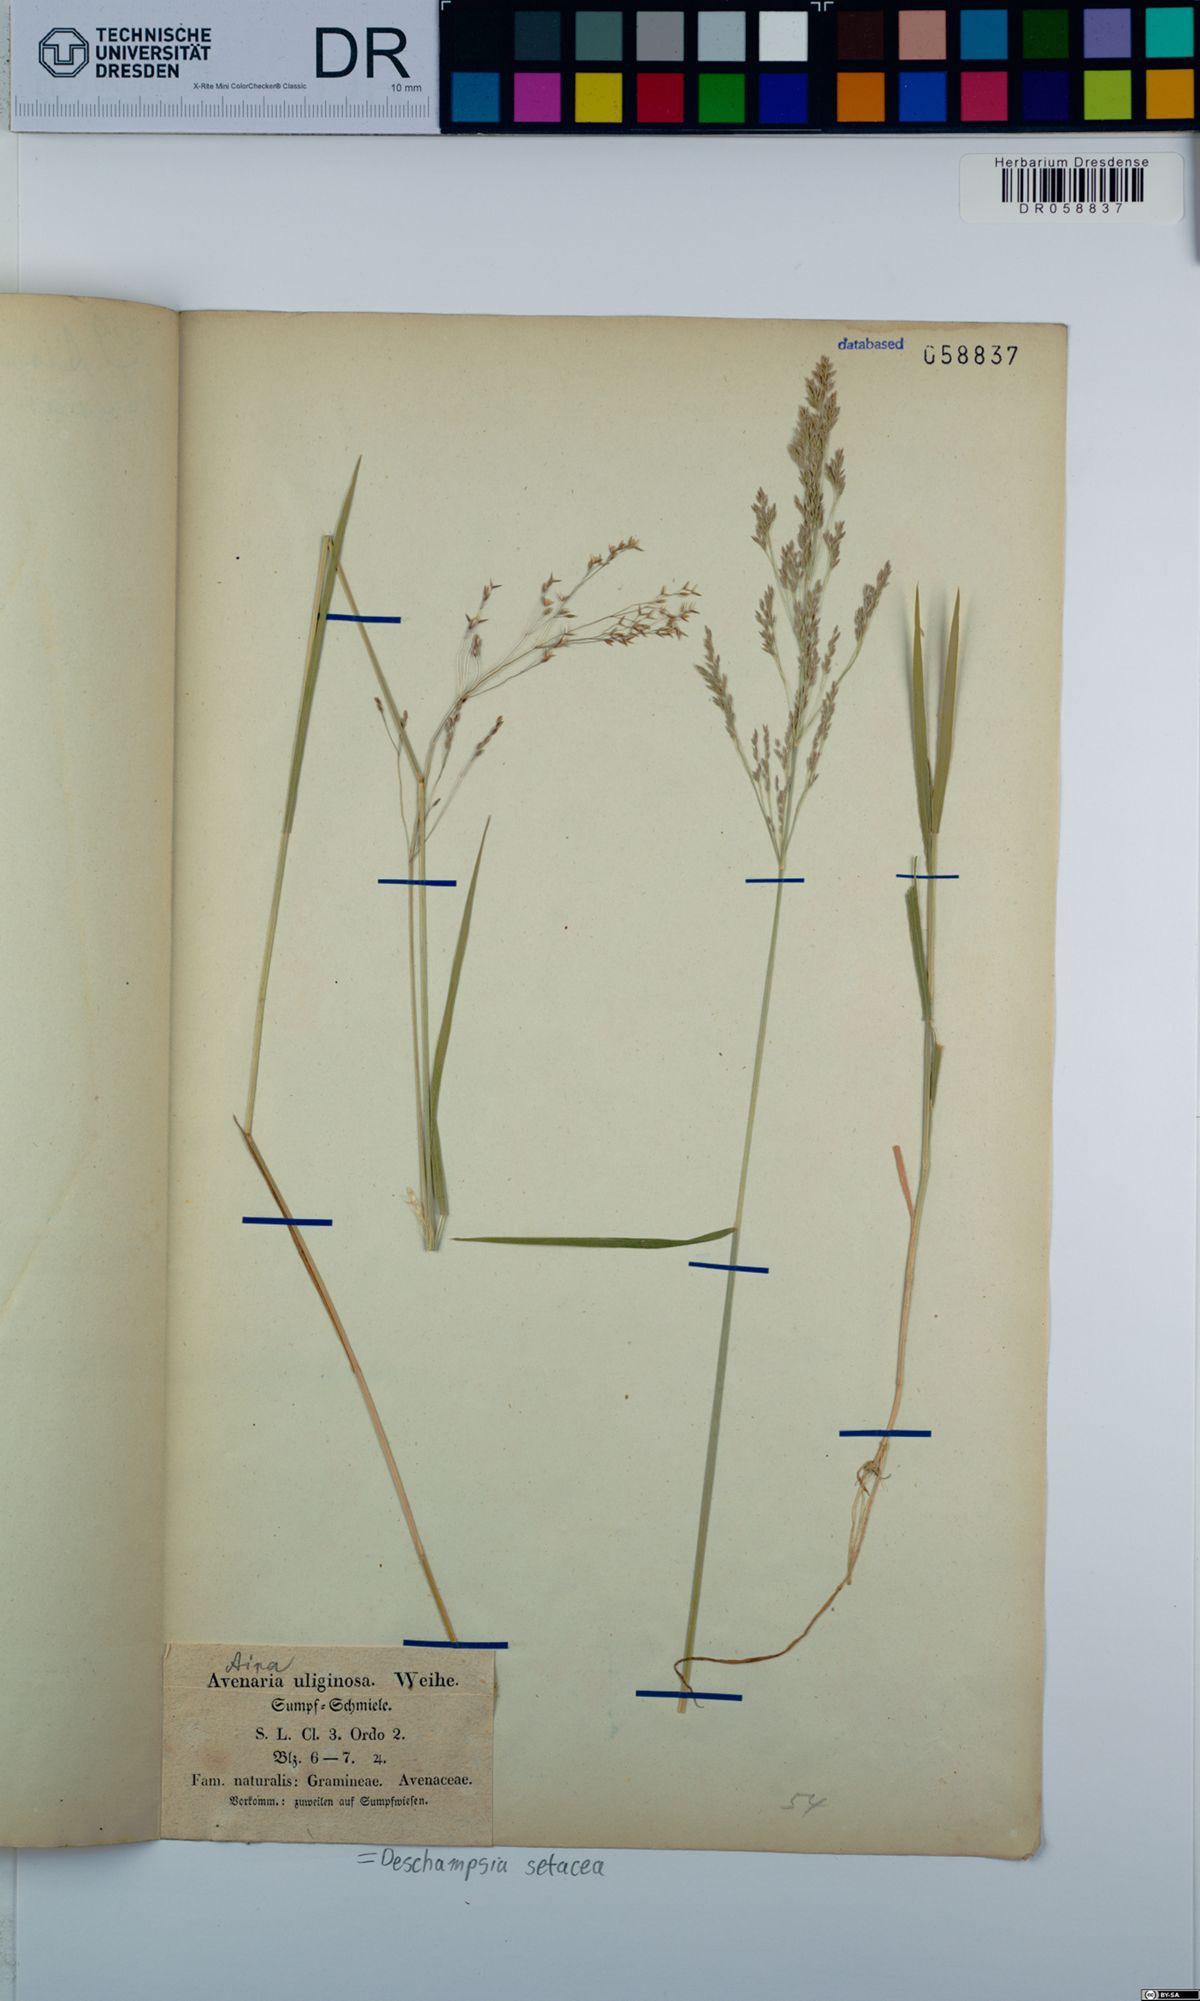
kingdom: Plantae
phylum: Tracheophyta
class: Liliopsida
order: Poales
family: Poaceae
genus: Deschampsia
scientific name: Deschampsia setacea
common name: Bog hair-grass
